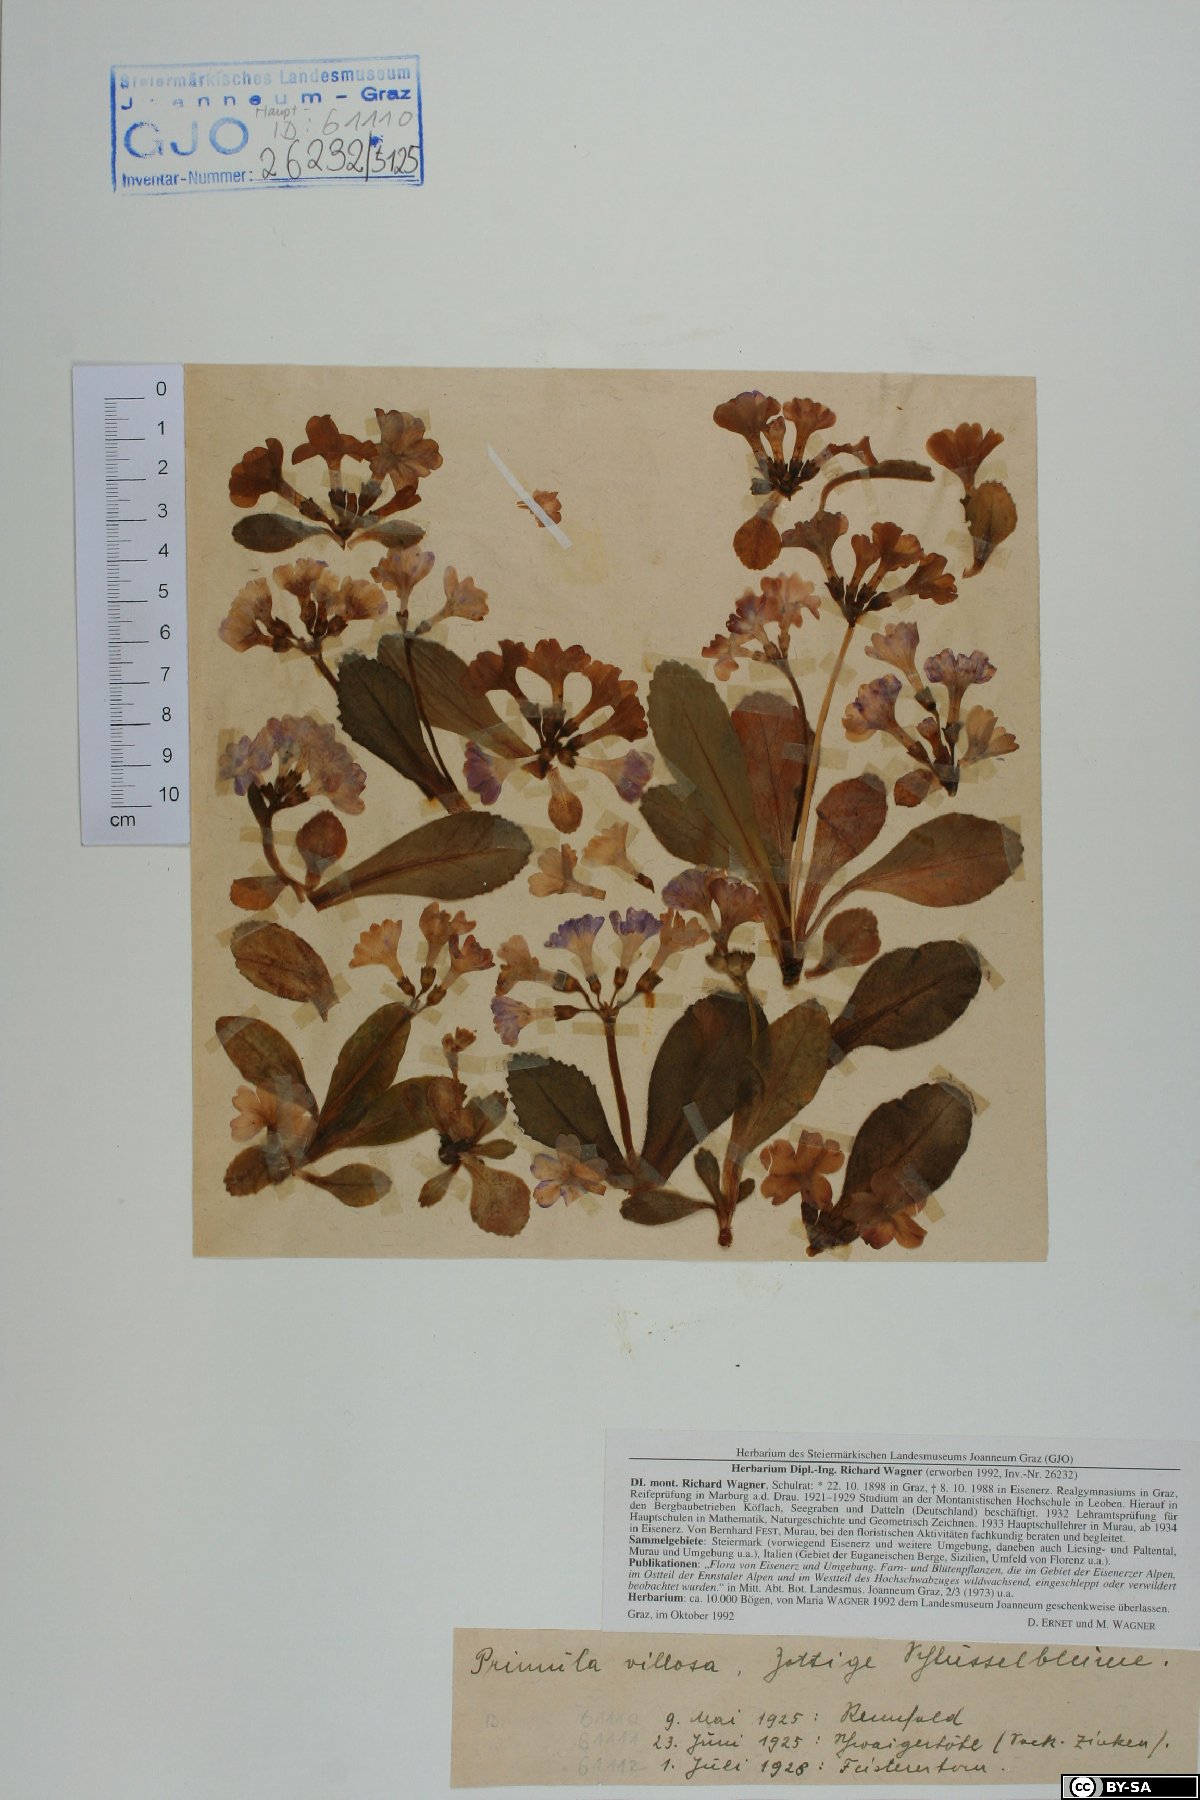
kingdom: Plantae
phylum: Tracheophyta
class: Magnoliopsida
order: Ericales
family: Primulaceae
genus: Primula
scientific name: Primula villosa
